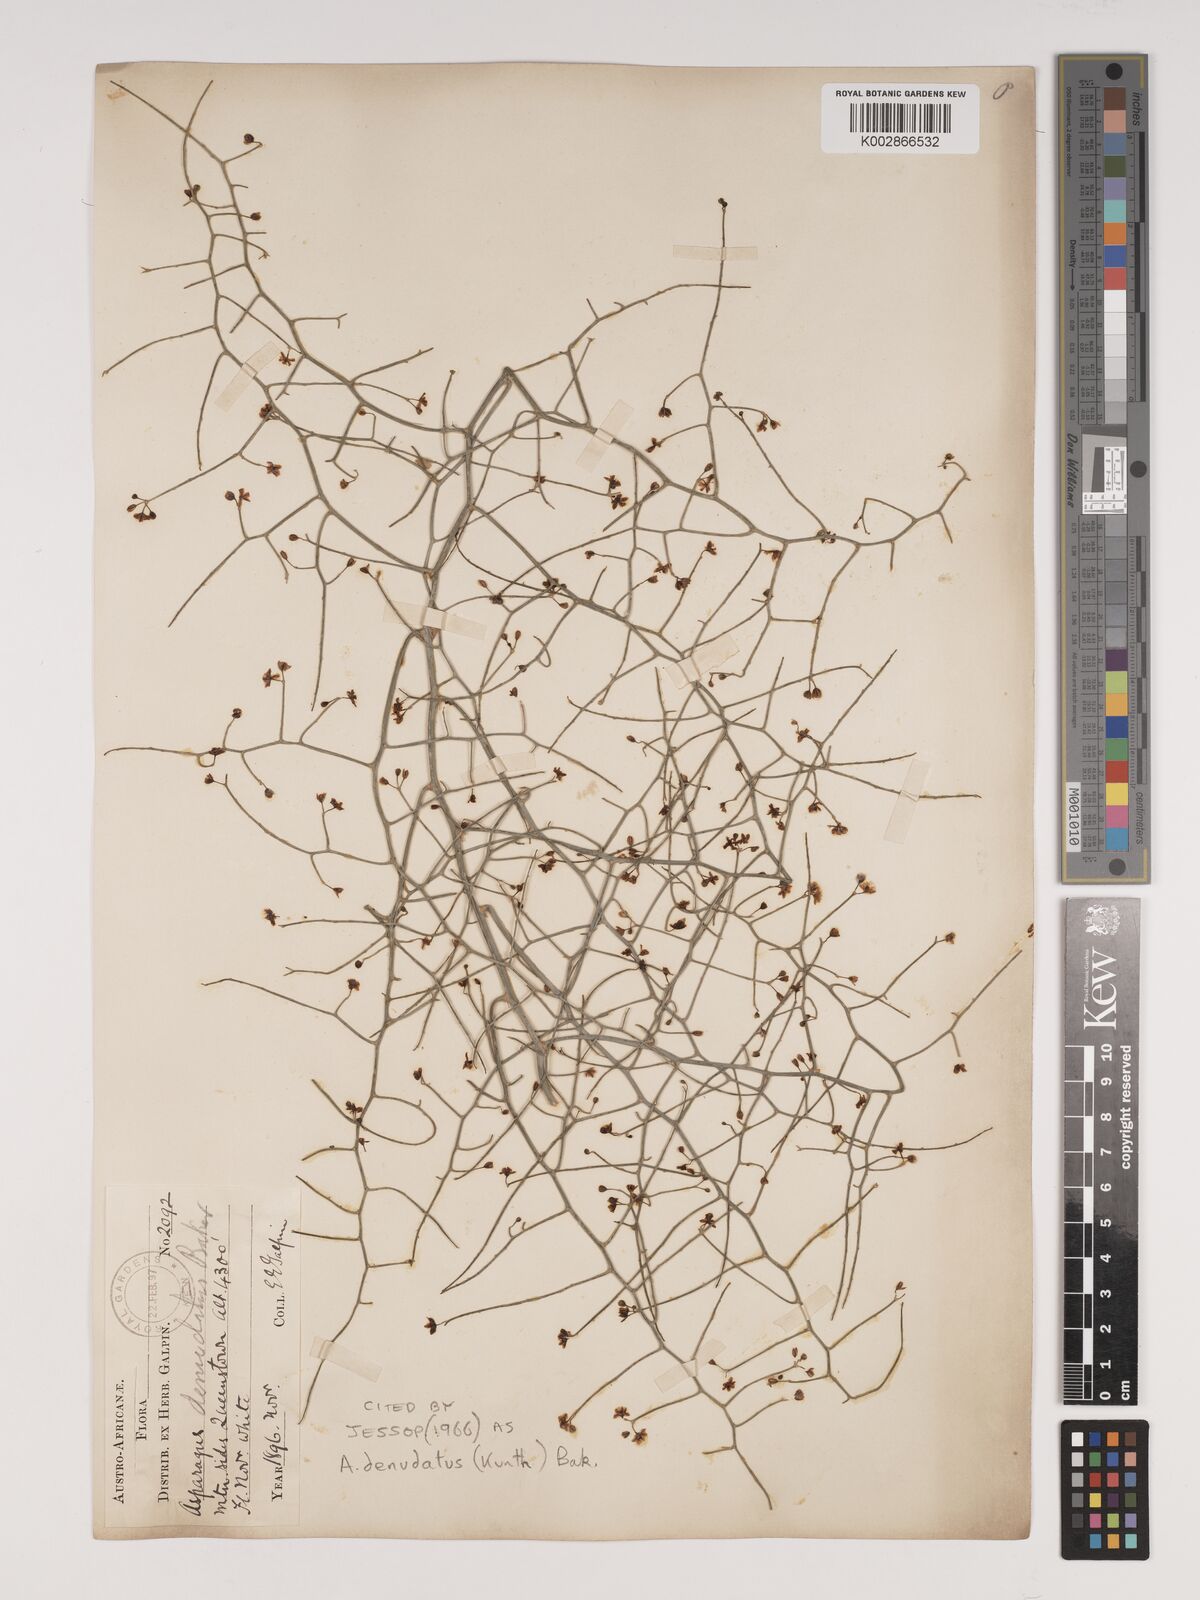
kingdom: Plantae
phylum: Tracheophyta
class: Liliopsida
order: Asparagales
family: Asparagaceae
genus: Asparagus
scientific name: Asparagus denudatus
